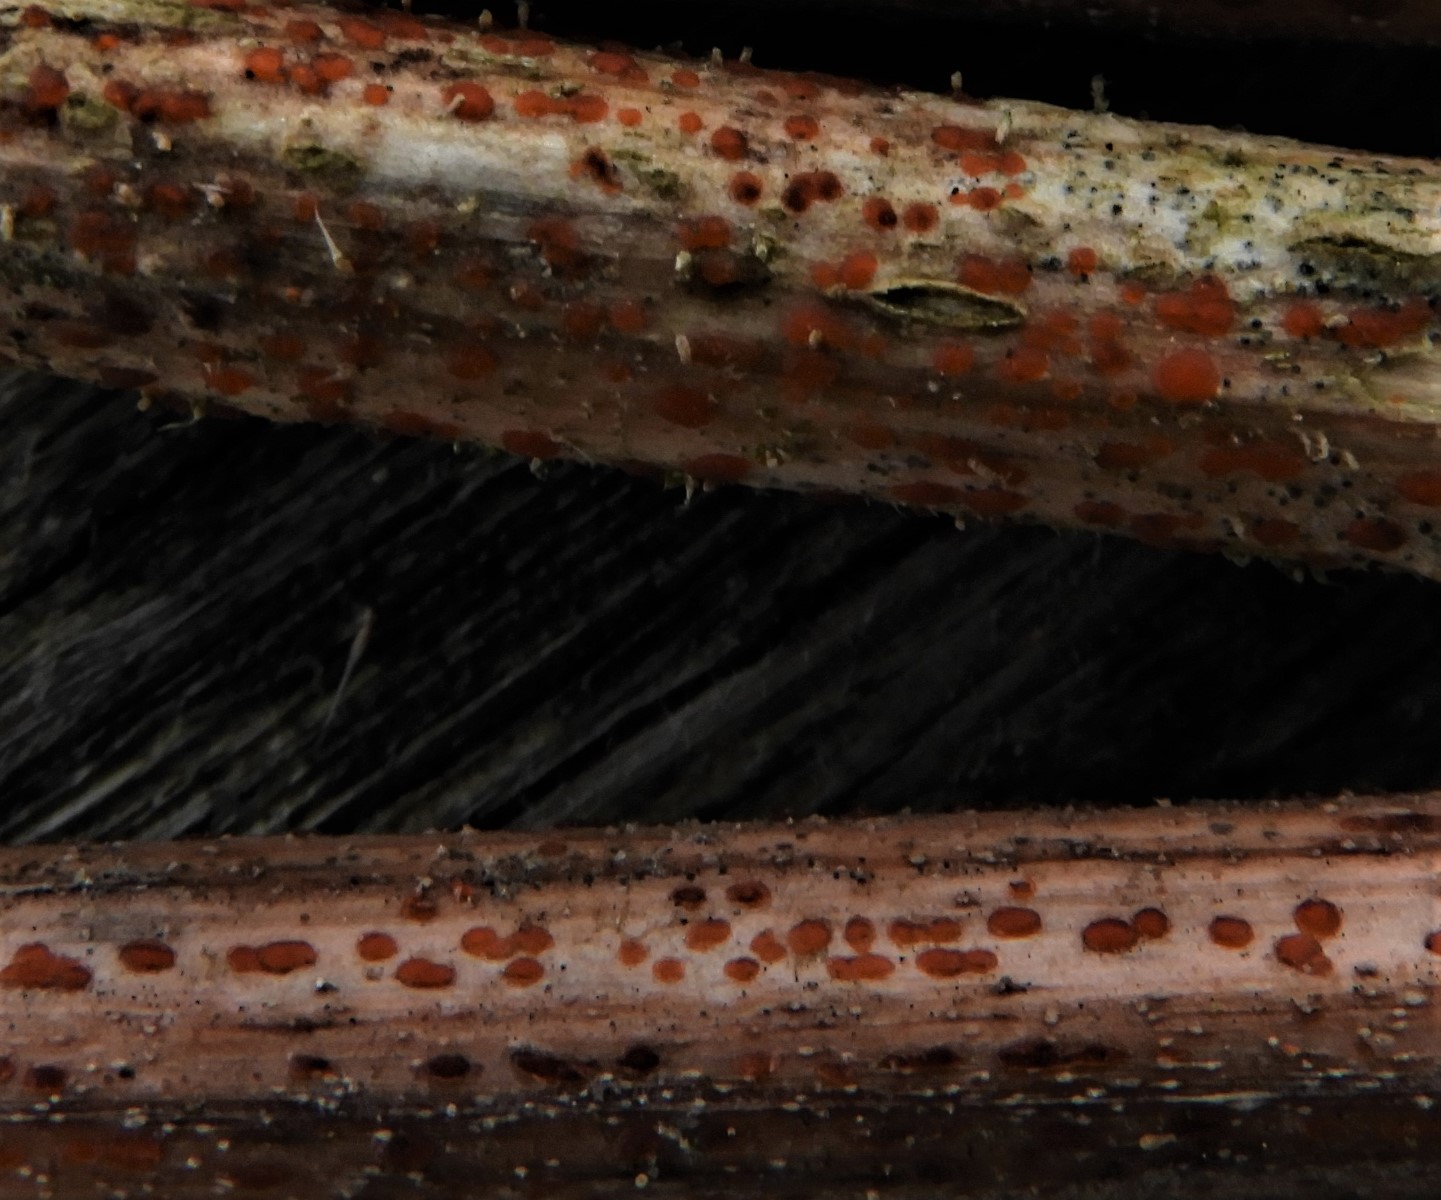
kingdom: Fungi
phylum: Ascomycota
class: Leotiomycetes
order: Helotiales
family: Calloriaceae
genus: Calloria
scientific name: Calloria urticae
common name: nælde-orangeskive
